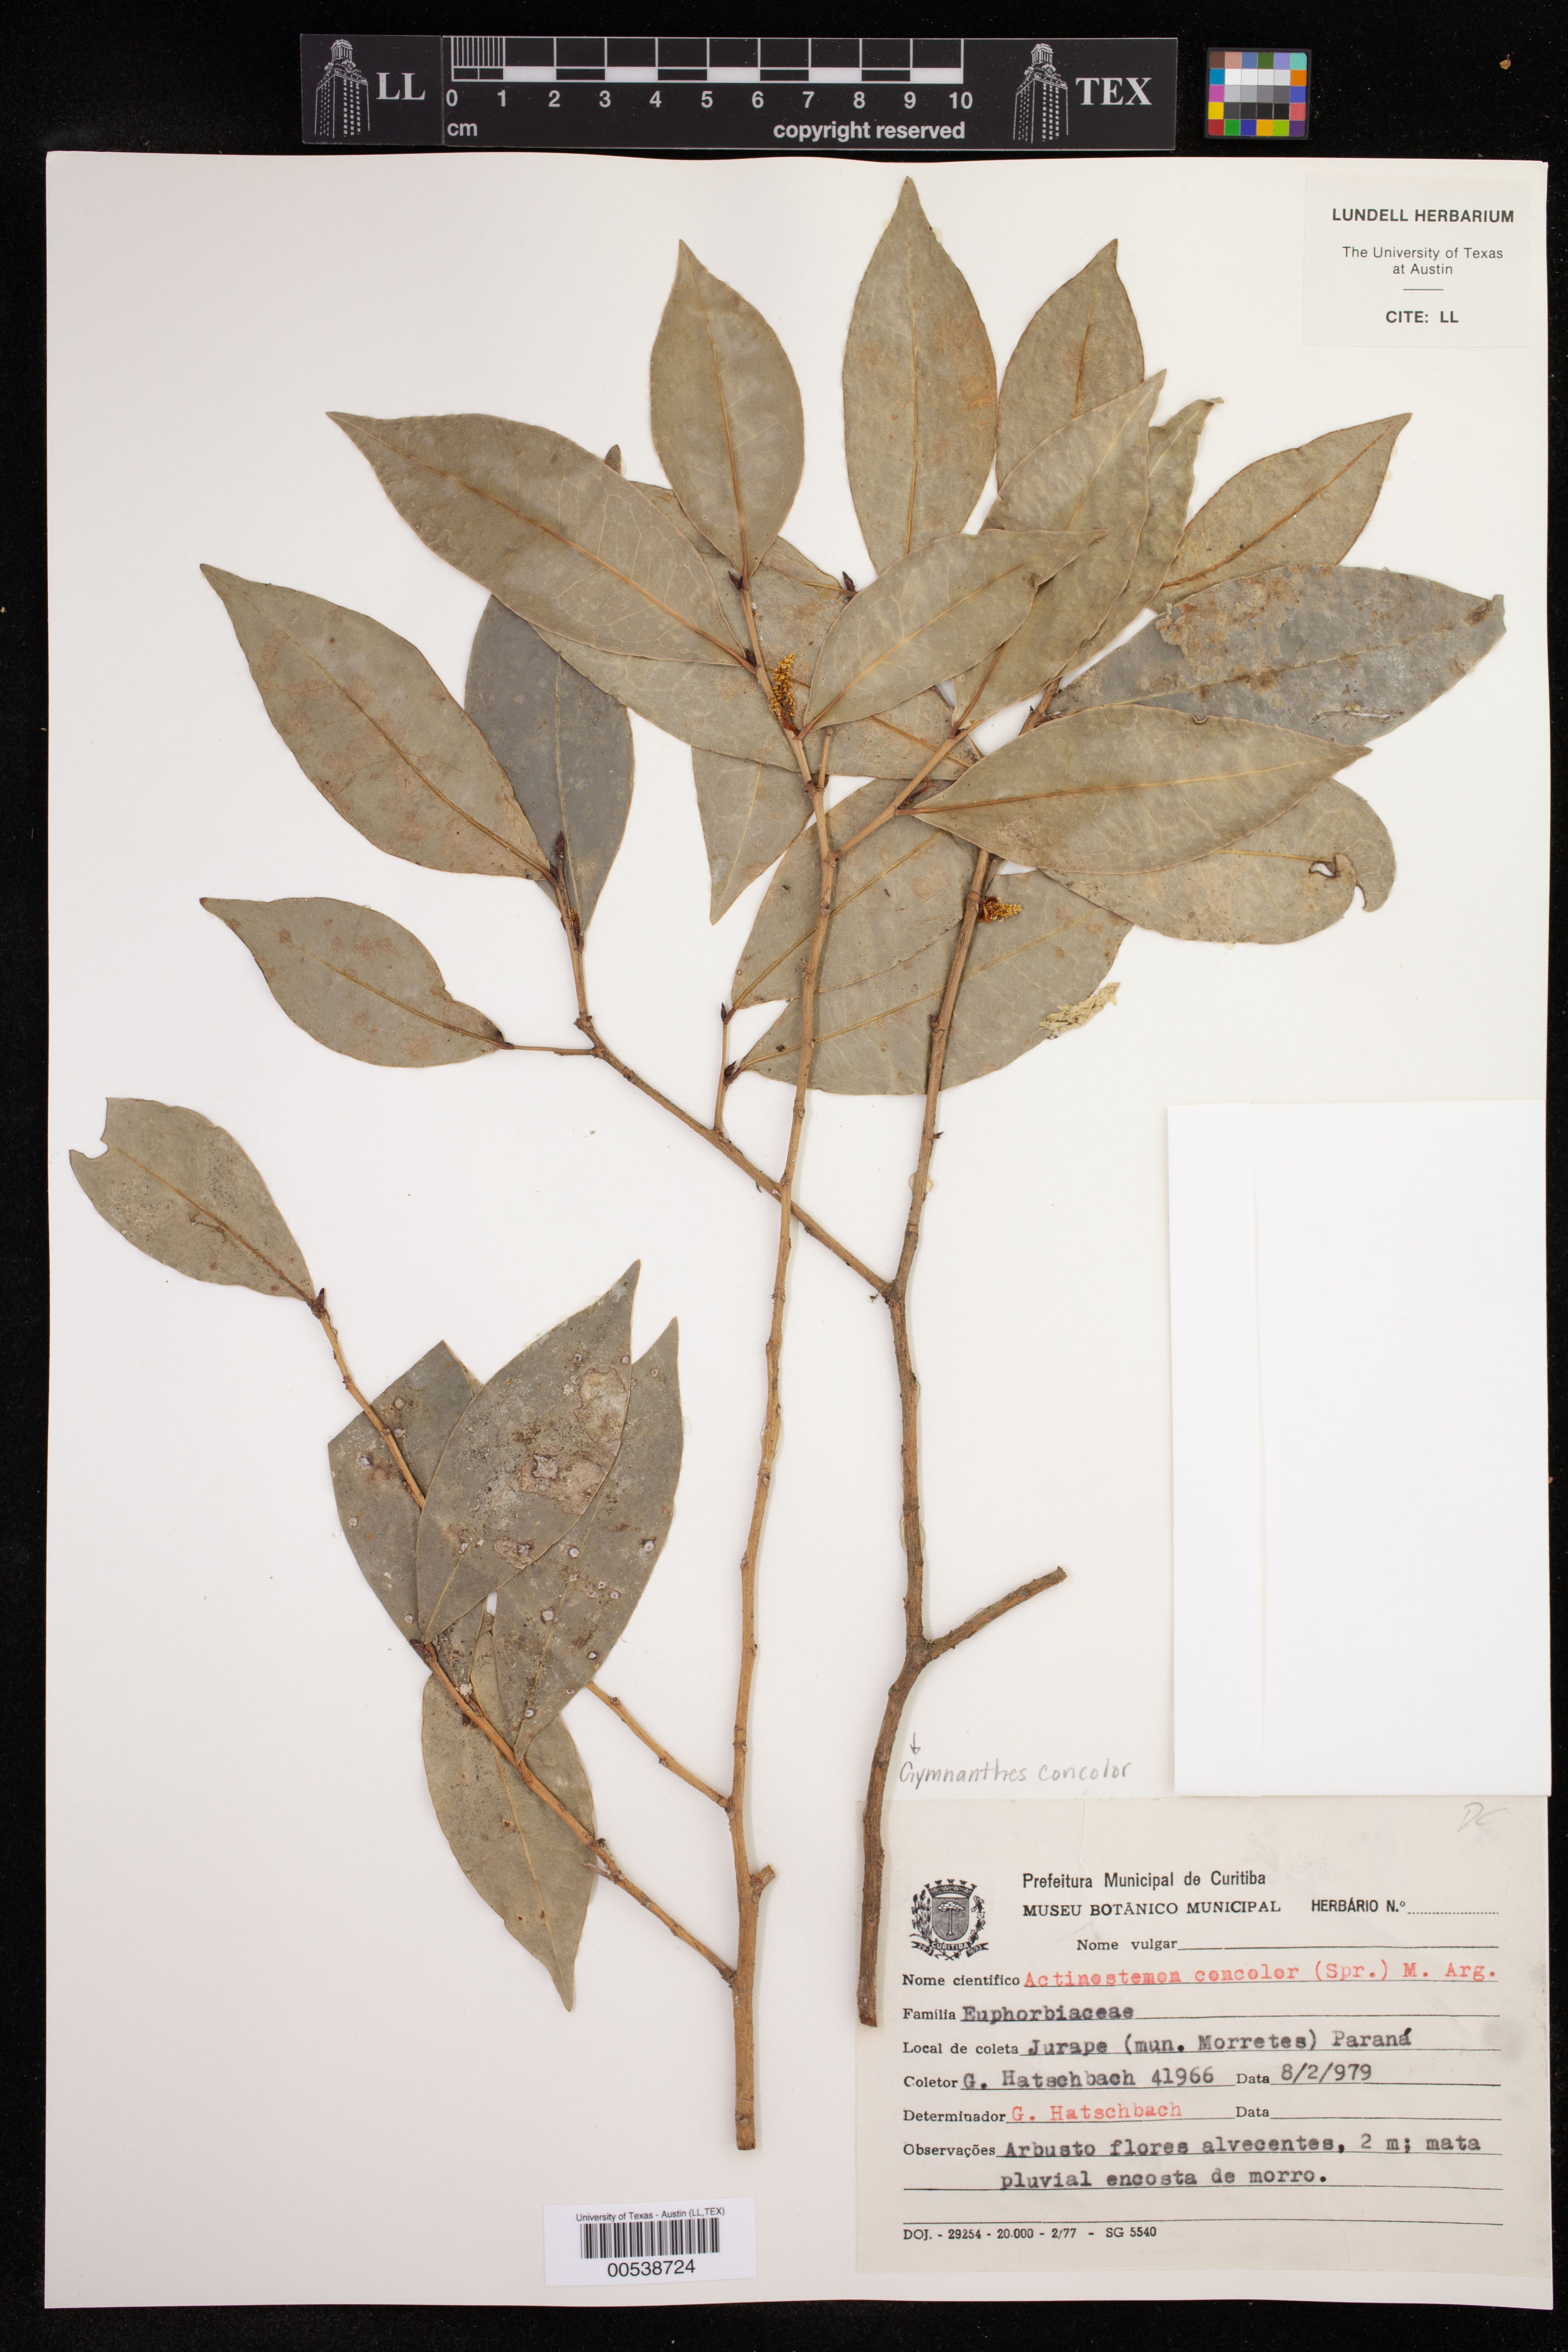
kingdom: Plantae
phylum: Tracheophyta
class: Magnoliopsida
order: Malpighiales
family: Euphorbiaceae
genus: Actinostemon
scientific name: Actinostemon concolor
